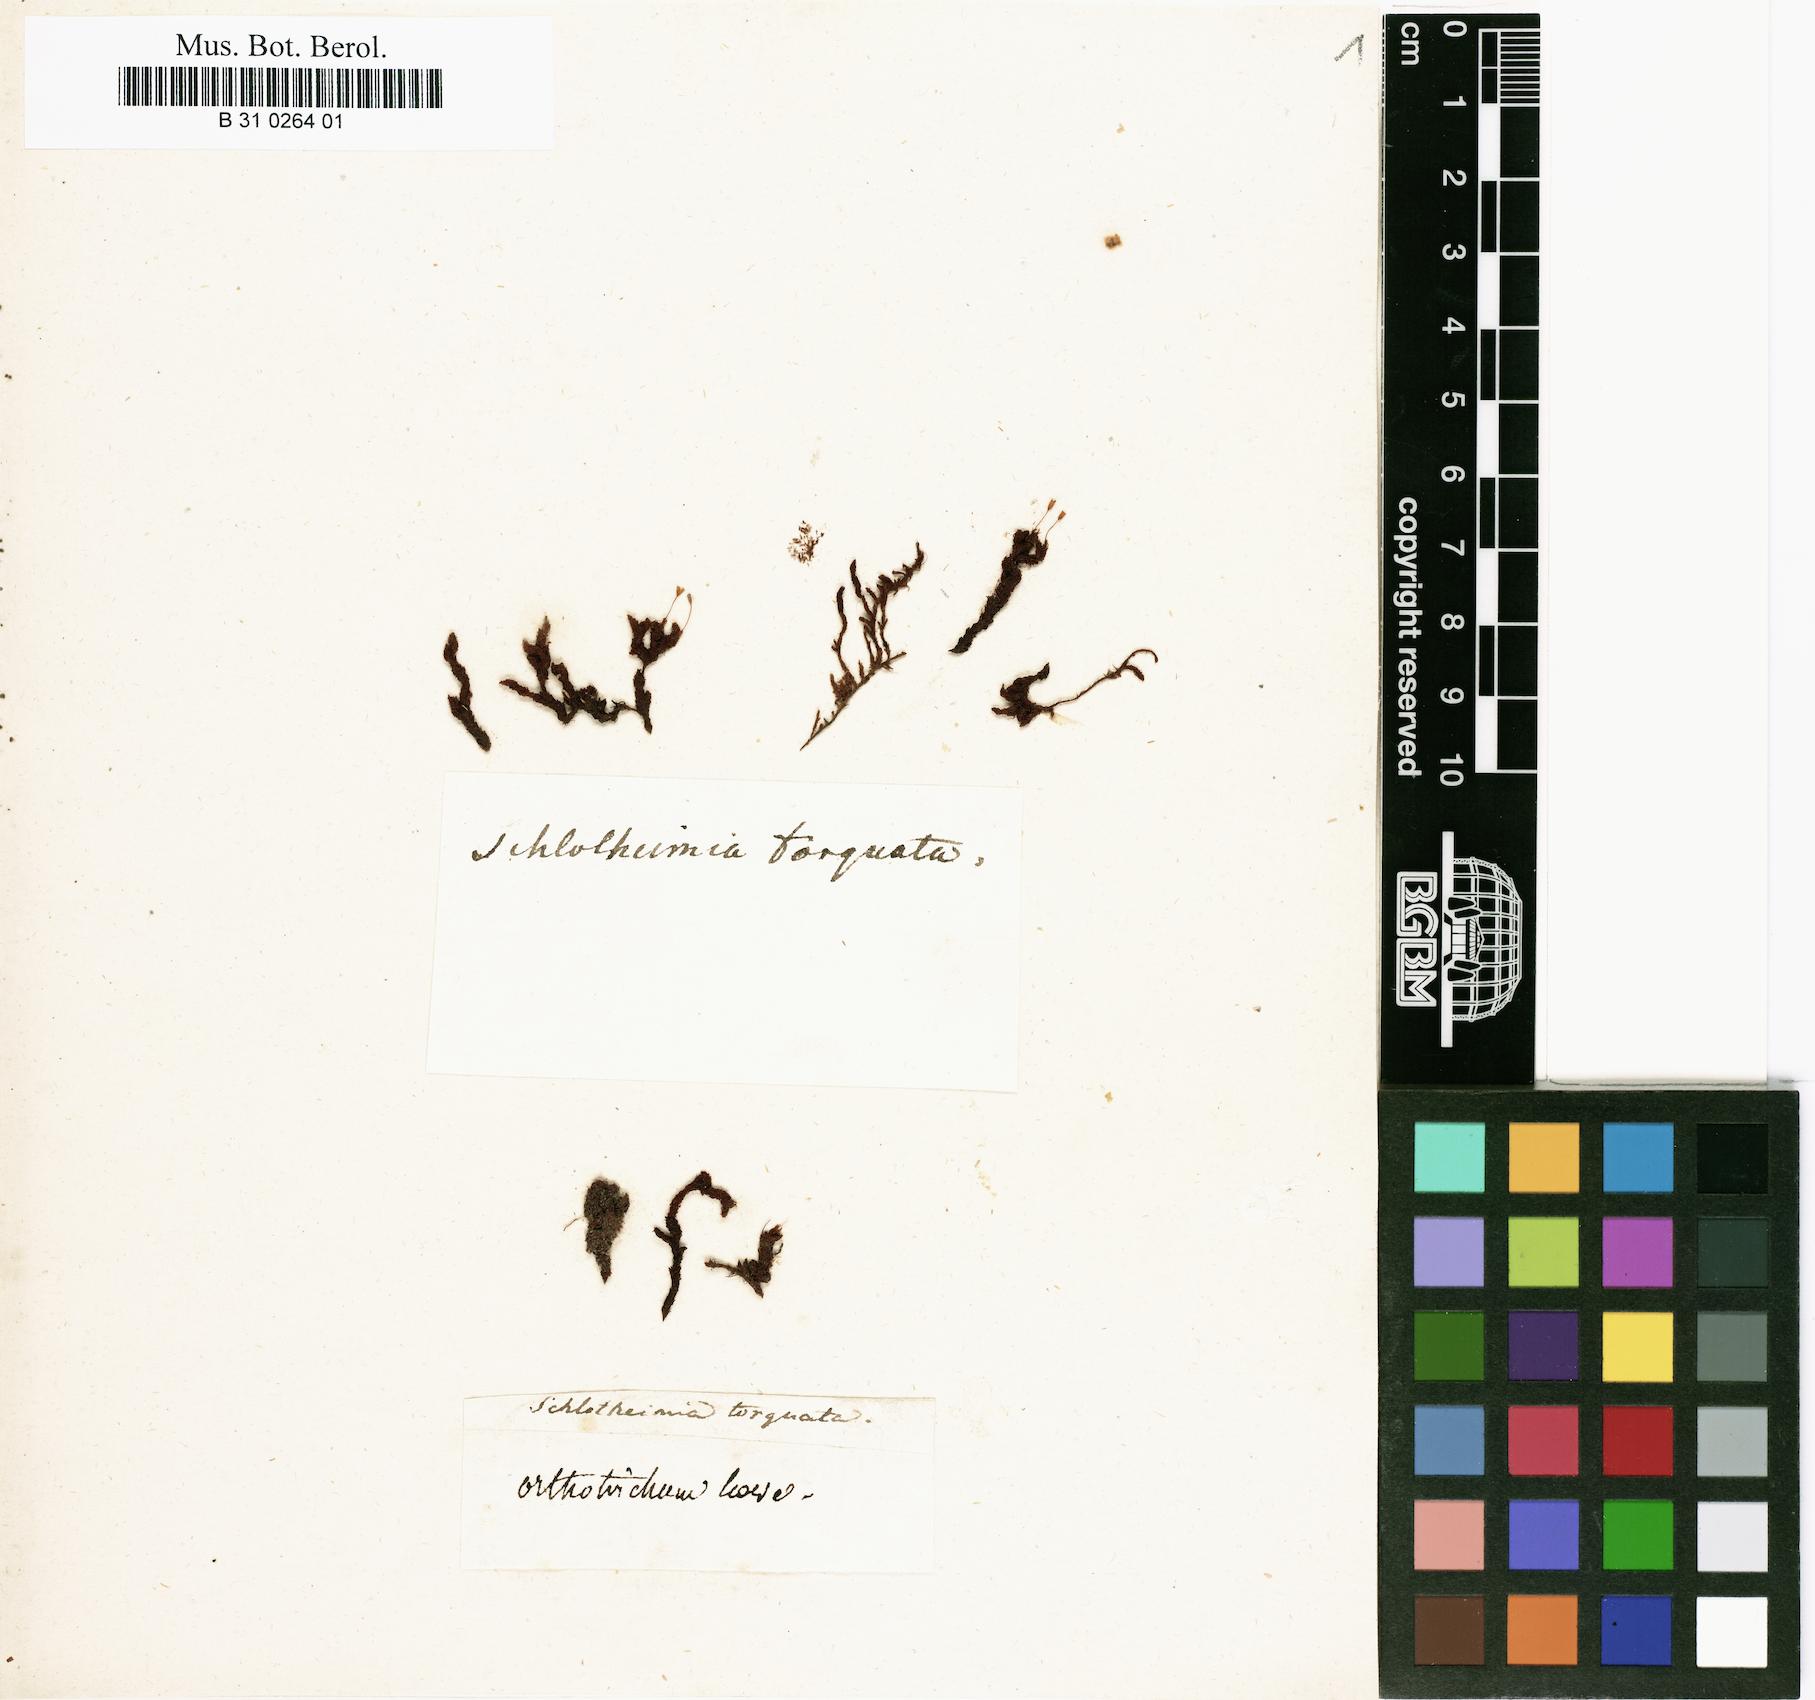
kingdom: Plantae
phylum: Bryophyta
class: Bryopsida
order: Orthotrichales
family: Orthotrichaceae
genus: Schlotheimia
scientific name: Schlotheimia torquata
